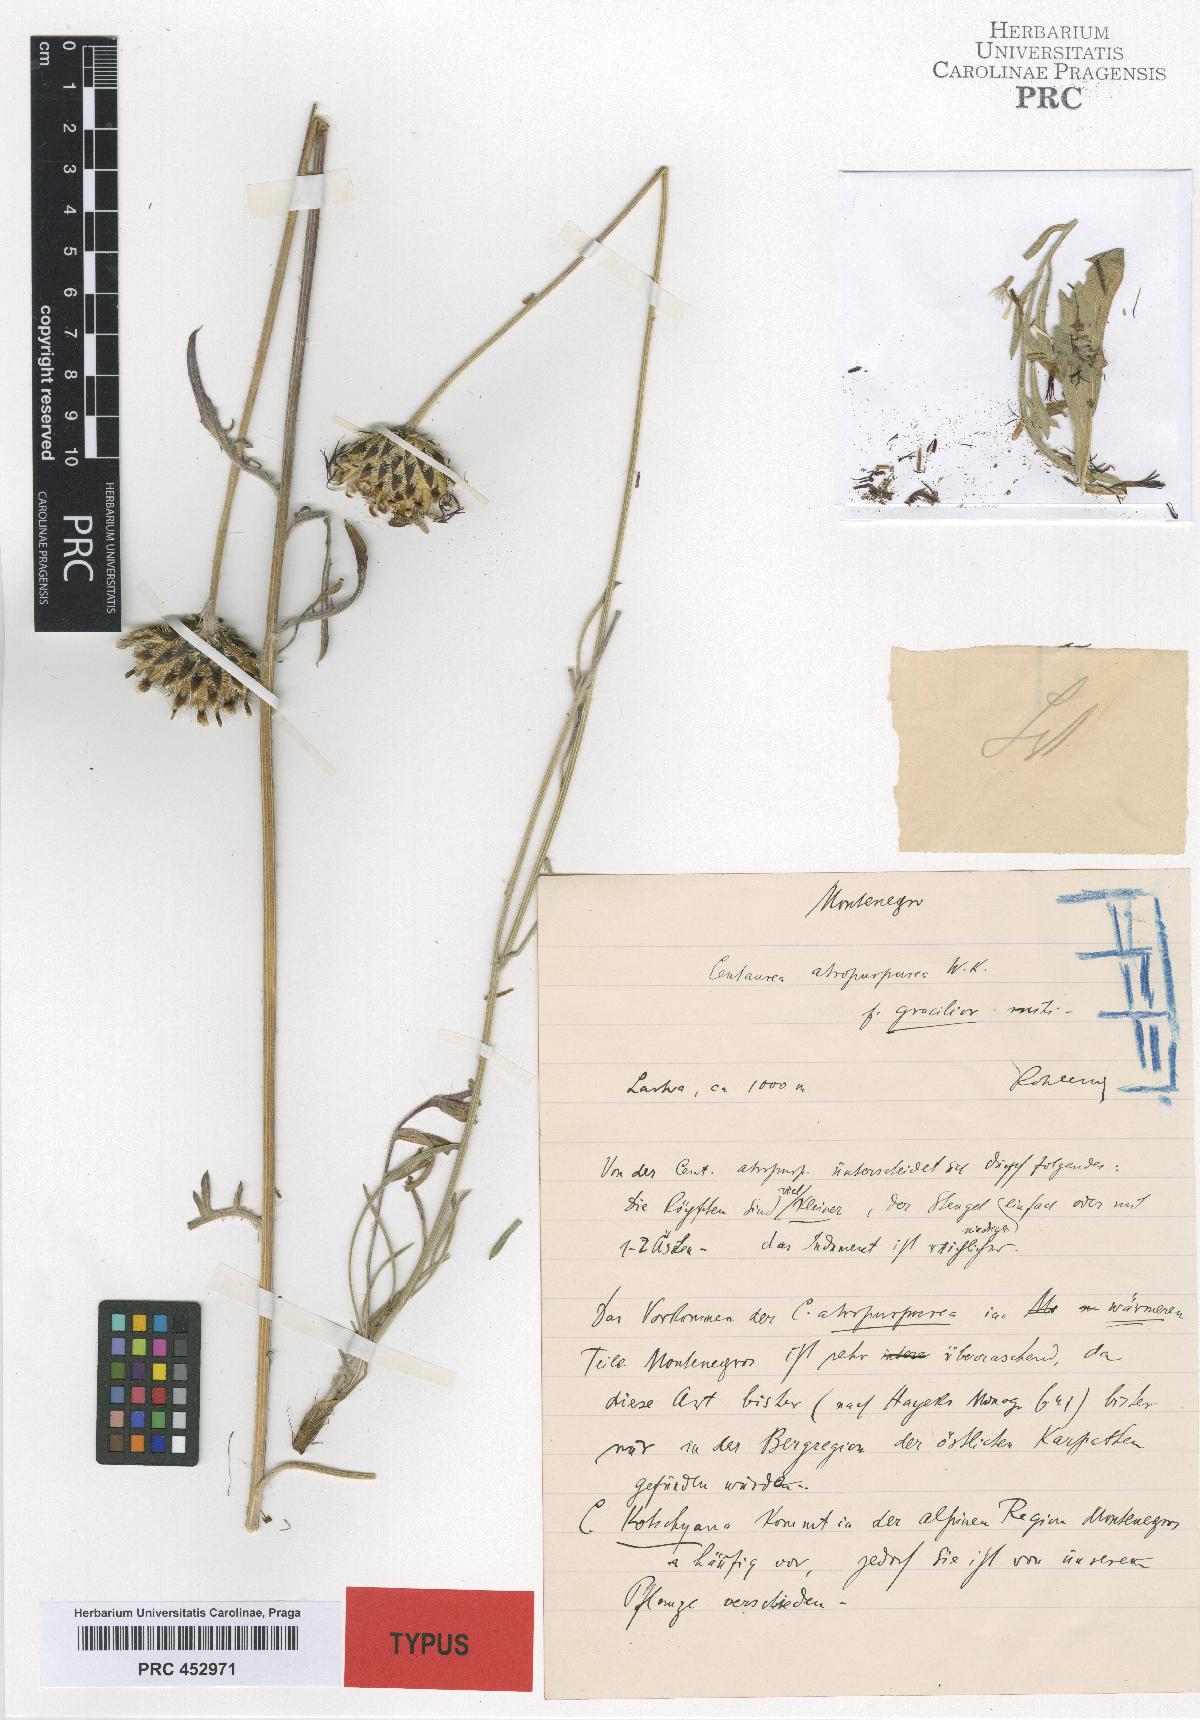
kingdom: Plantae
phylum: Tracheophyta
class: Magnoliopsida
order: Asterales
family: Asteraceae
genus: Centaurea
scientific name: Centaurea atropurpurea
